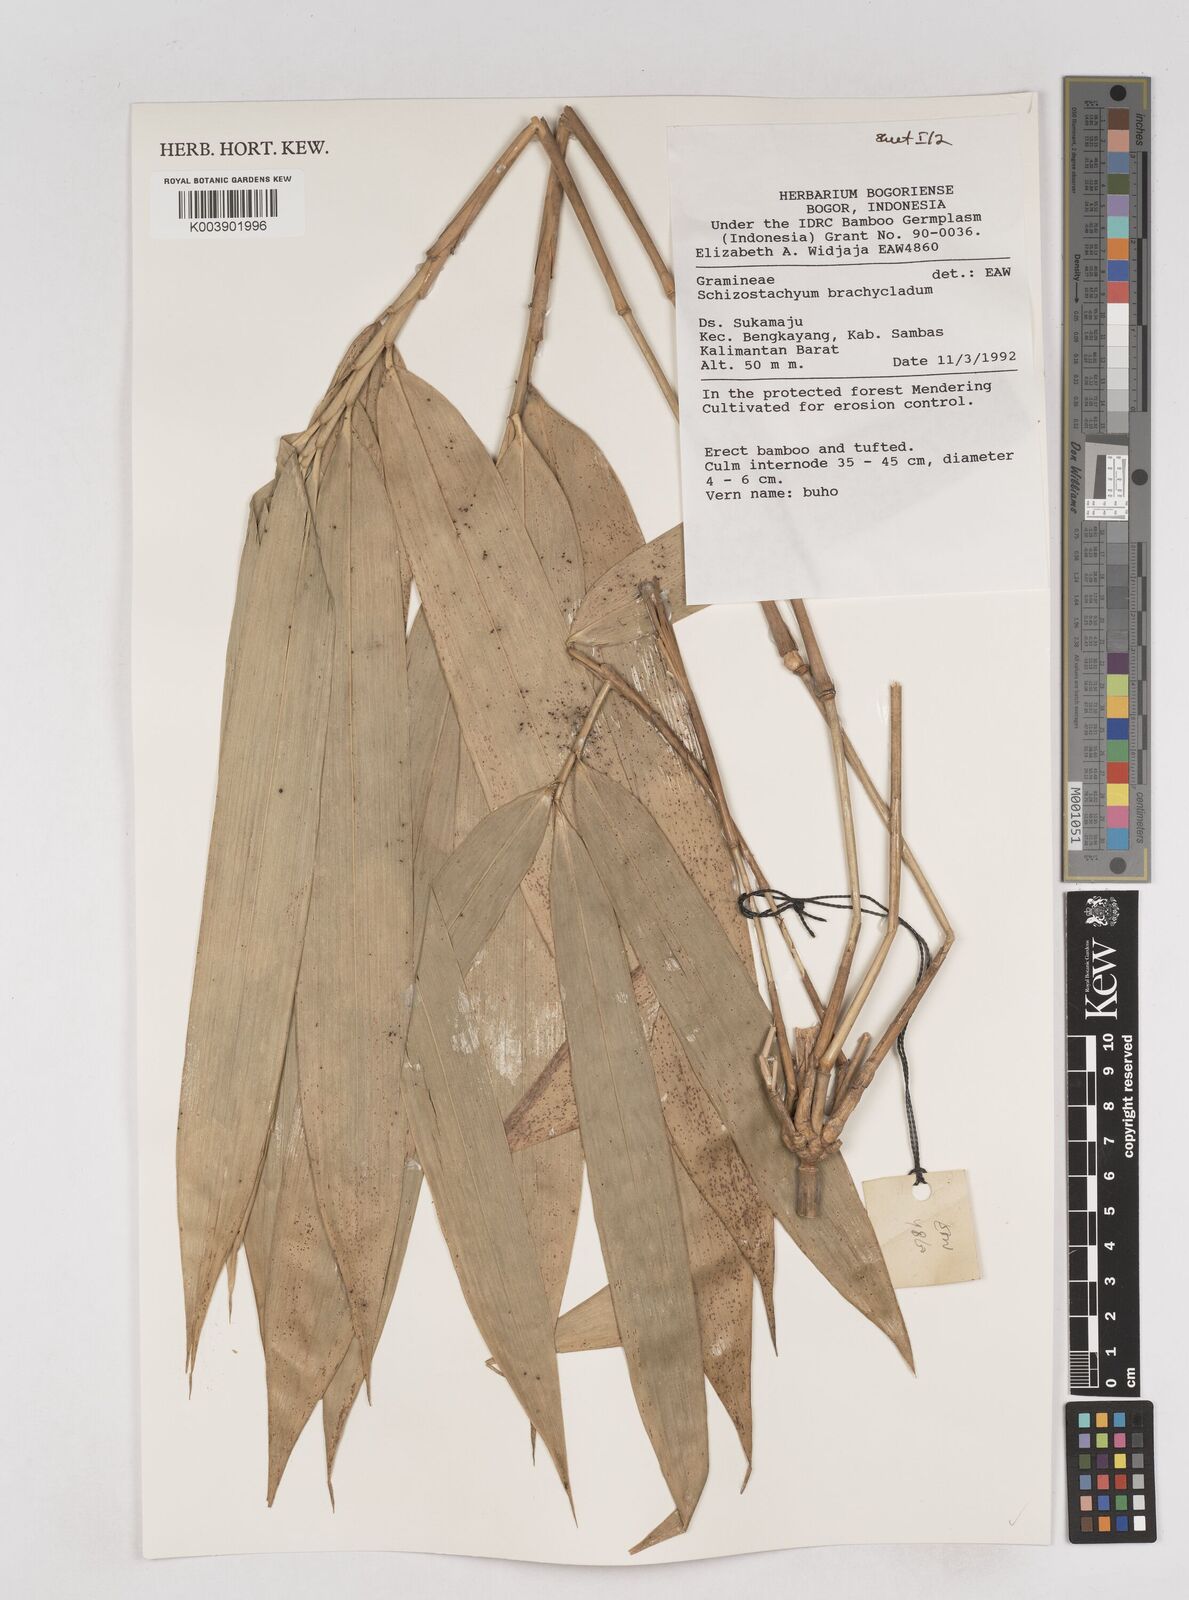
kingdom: Plantae
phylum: Tracheophyta
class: Liliopsida
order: Poales
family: Poaceae
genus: Schizostachyum
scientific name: Schizostachyum brachycladum
